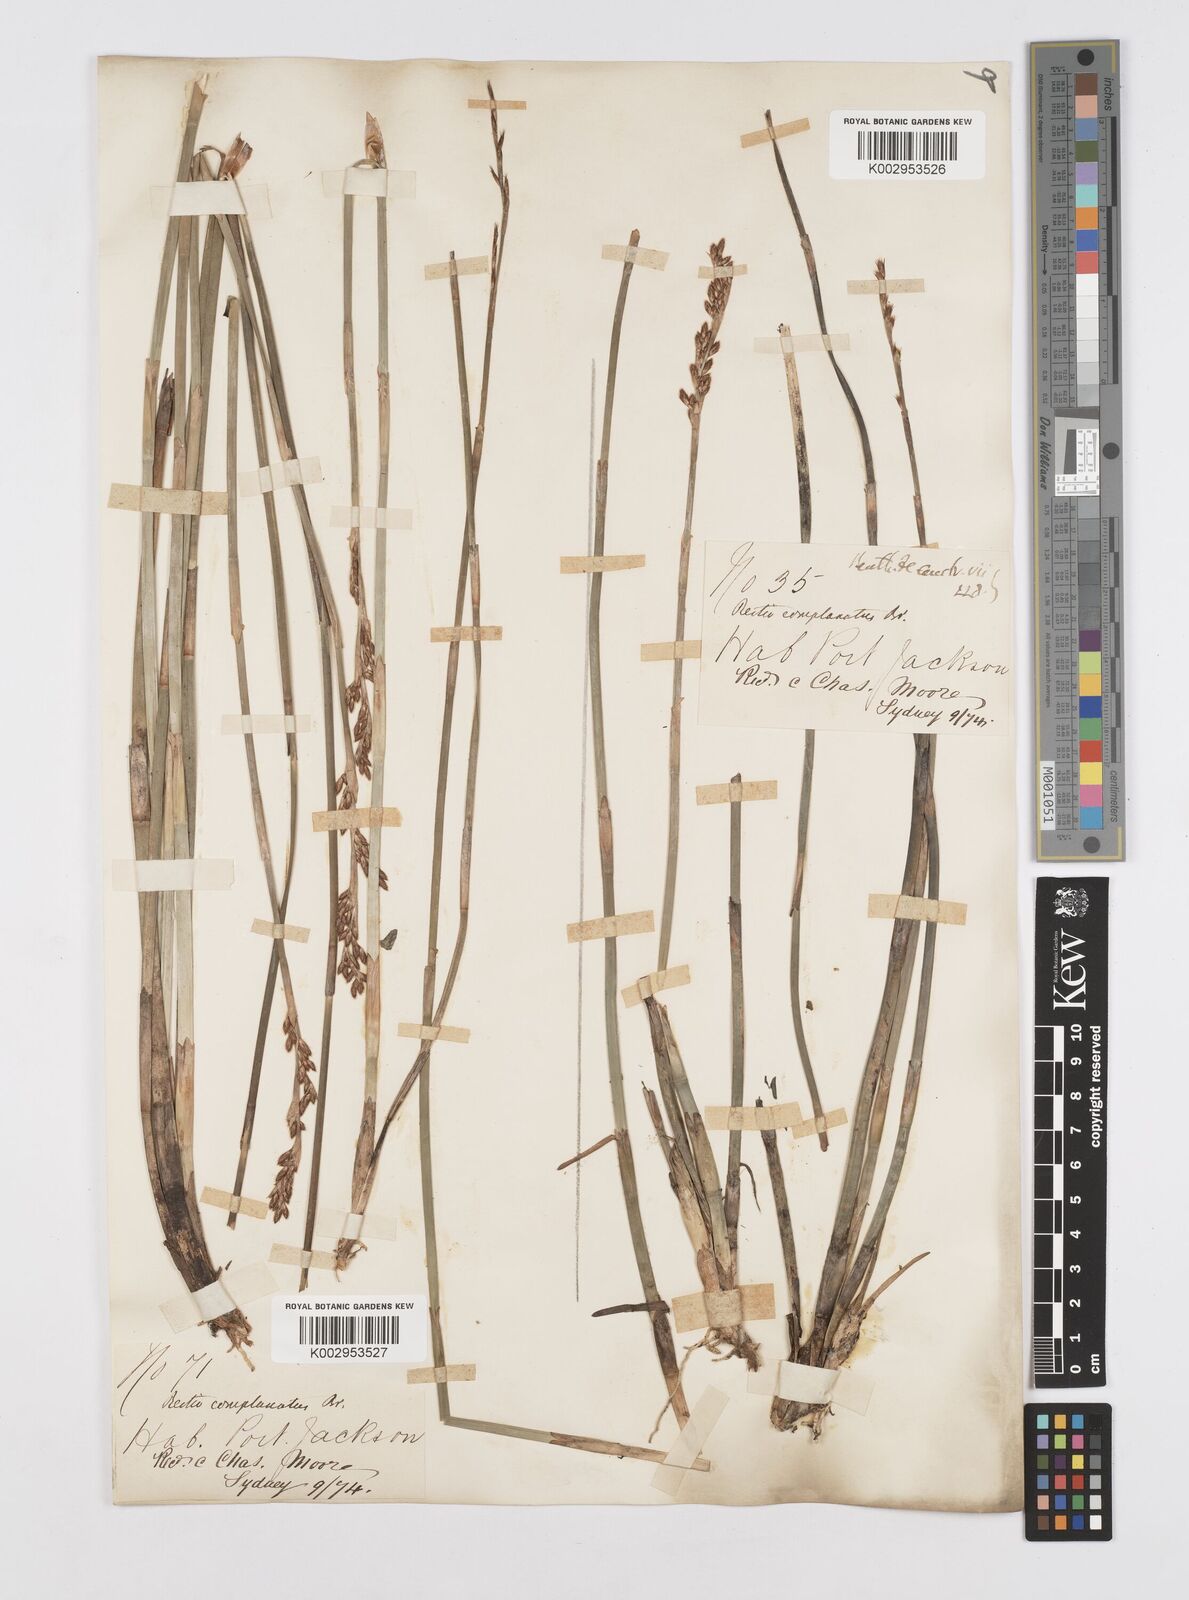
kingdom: Plantae
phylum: Tracheophyta
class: Liliopsida
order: Poales
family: Restionaceae
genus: Eurychorda
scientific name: Eurychorda complanata
